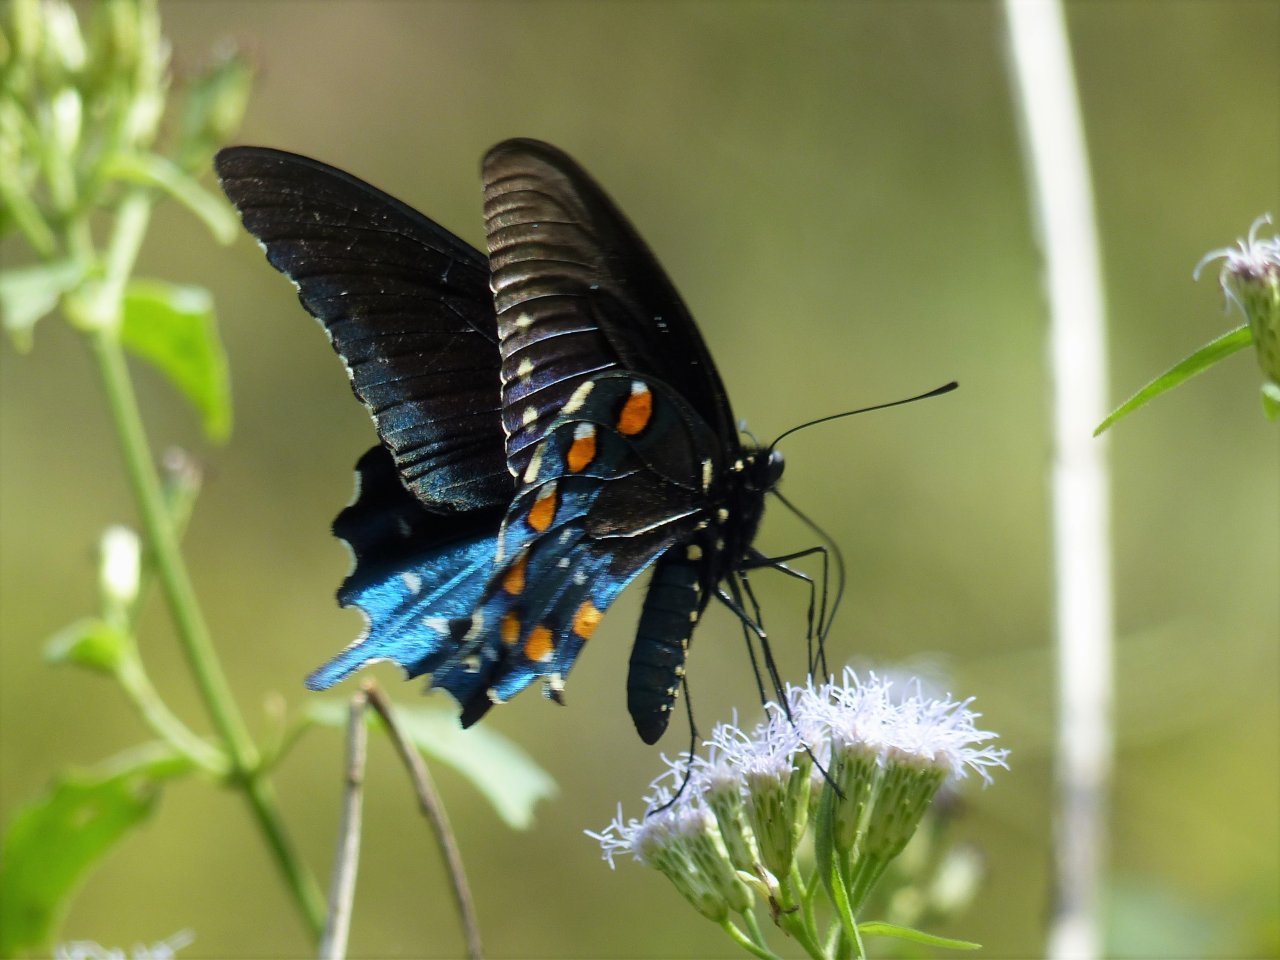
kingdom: Animalia
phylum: Arthropoda
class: Insecta
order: Lepidoptera
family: Papilionidae
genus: Battus
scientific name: Battus philenor
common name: Pipevine Swallowtail
